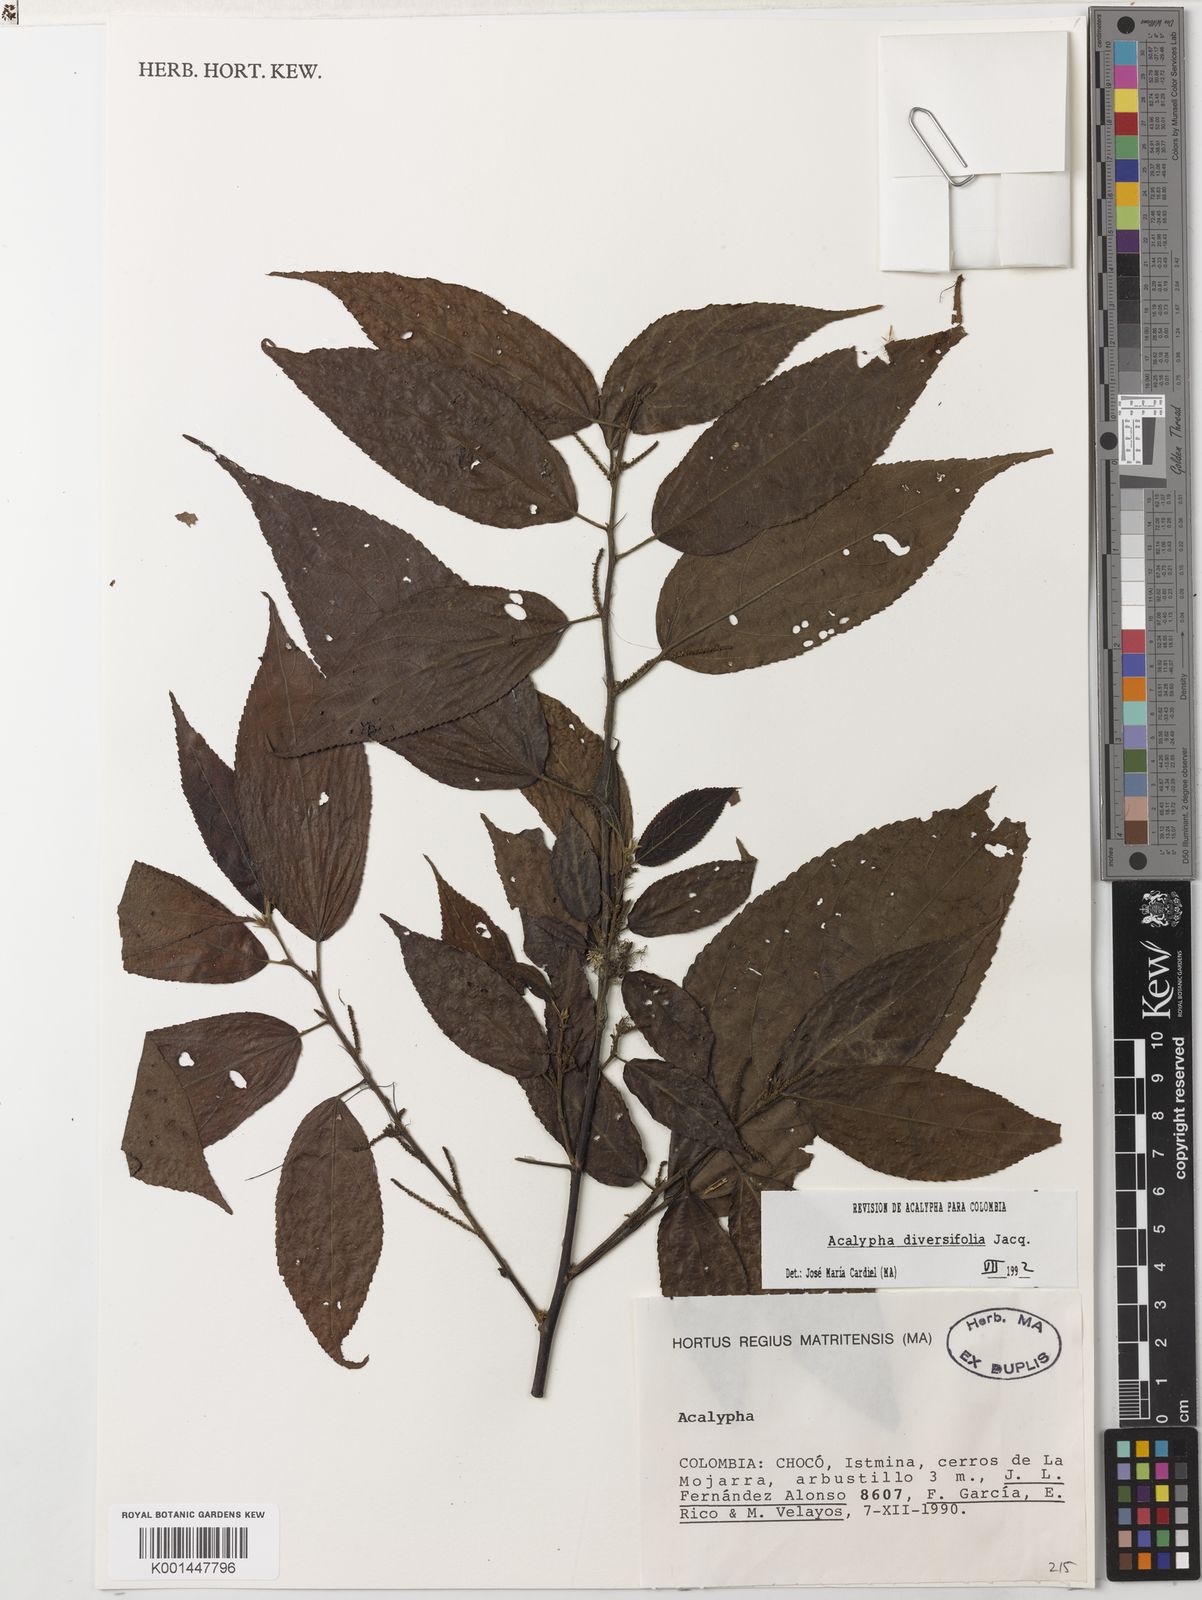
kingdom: Plantae
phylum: Tracheophyta
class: Magnoliopsida
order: Malpighiales
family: Euphorbiaceae
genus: Acalypha
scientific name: Acalypha diversifolia
